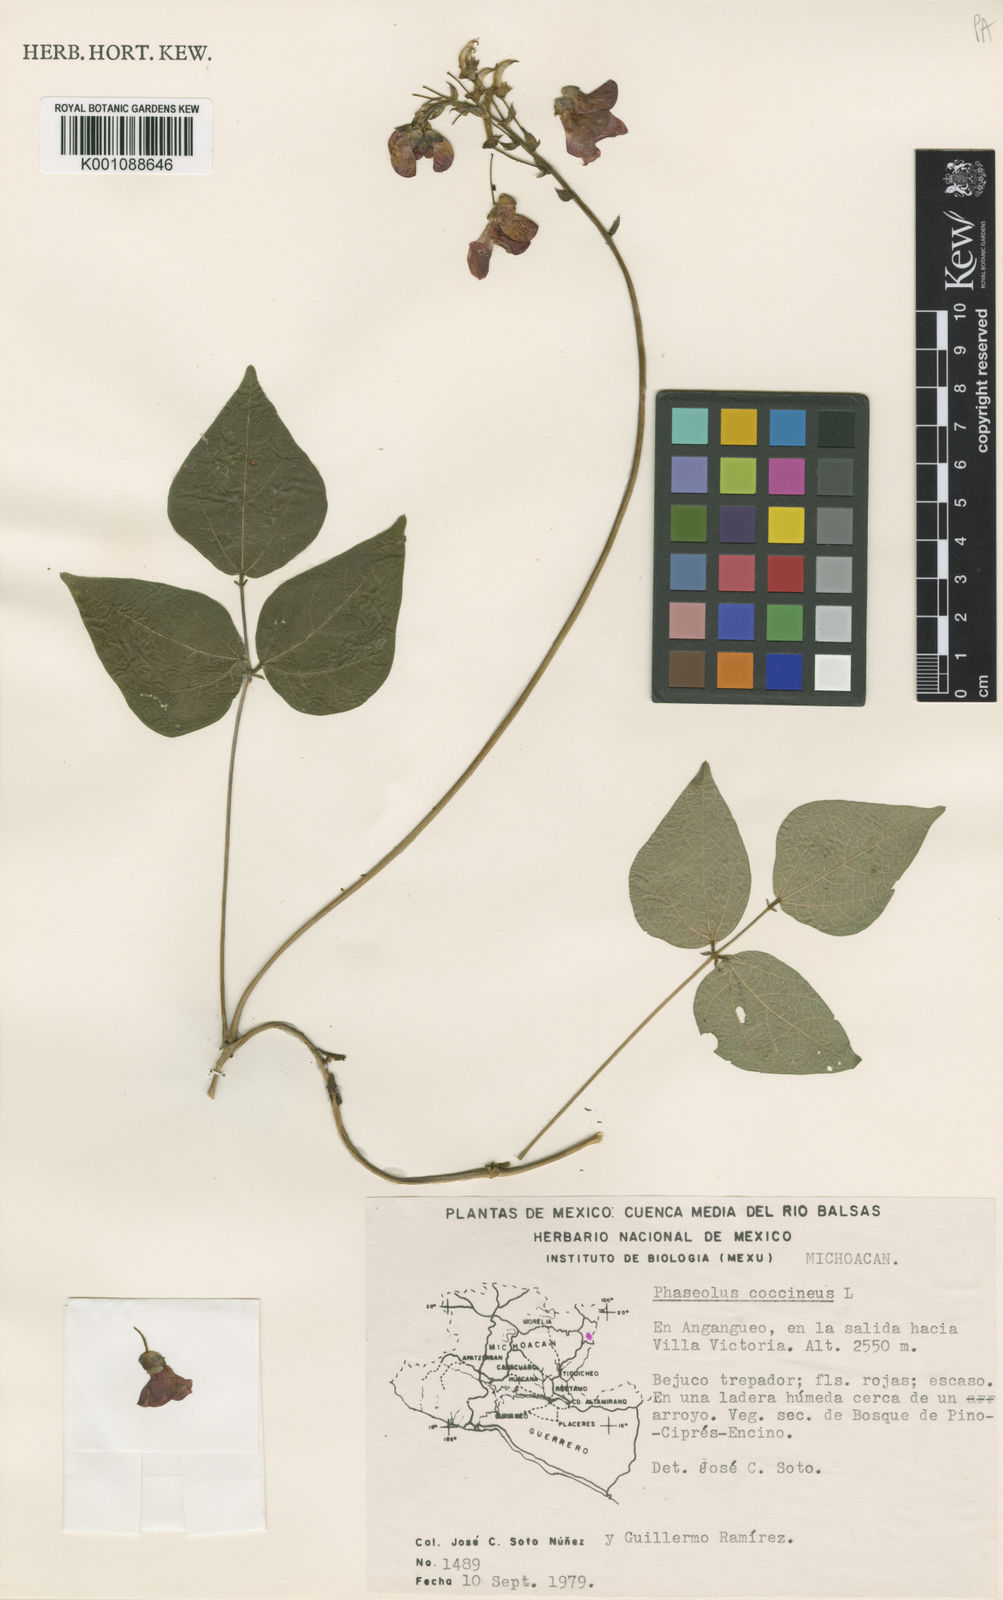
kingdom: Plantae
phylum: Tracheophyta
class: Magnoliopsida
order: Fabales
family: Fabaceae
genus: Phaseolus
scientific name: Phaseolus coccineus
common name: Runner bean
